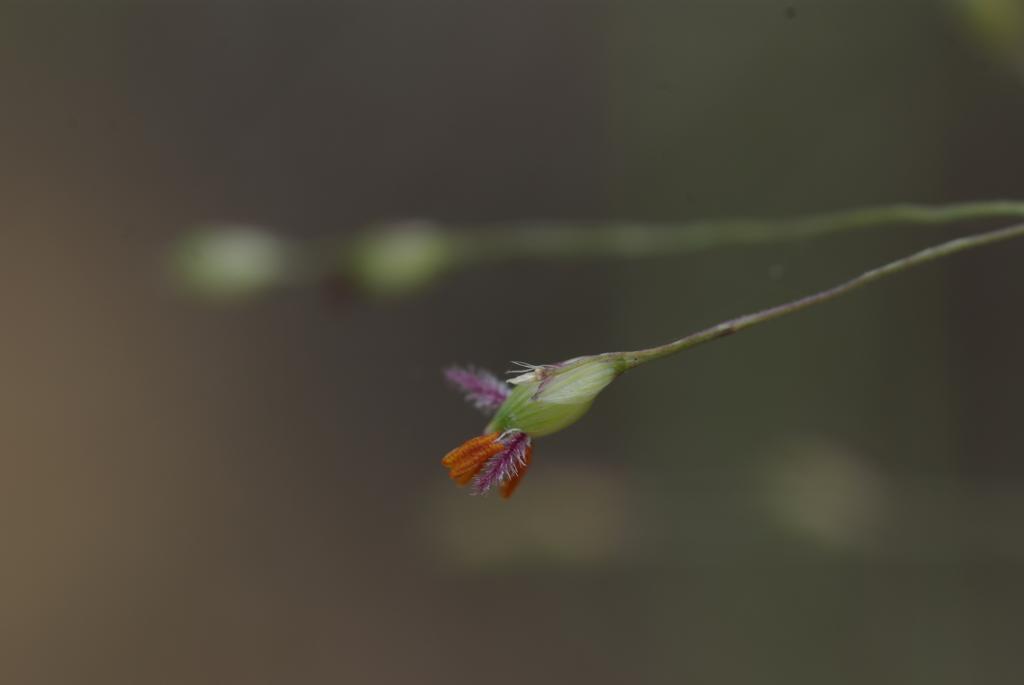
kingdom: Plantae
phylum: Tracheophyta
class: Liliopsida
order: Poales
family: Poaceae
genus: Panicum
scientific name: Panicum curviflorum
